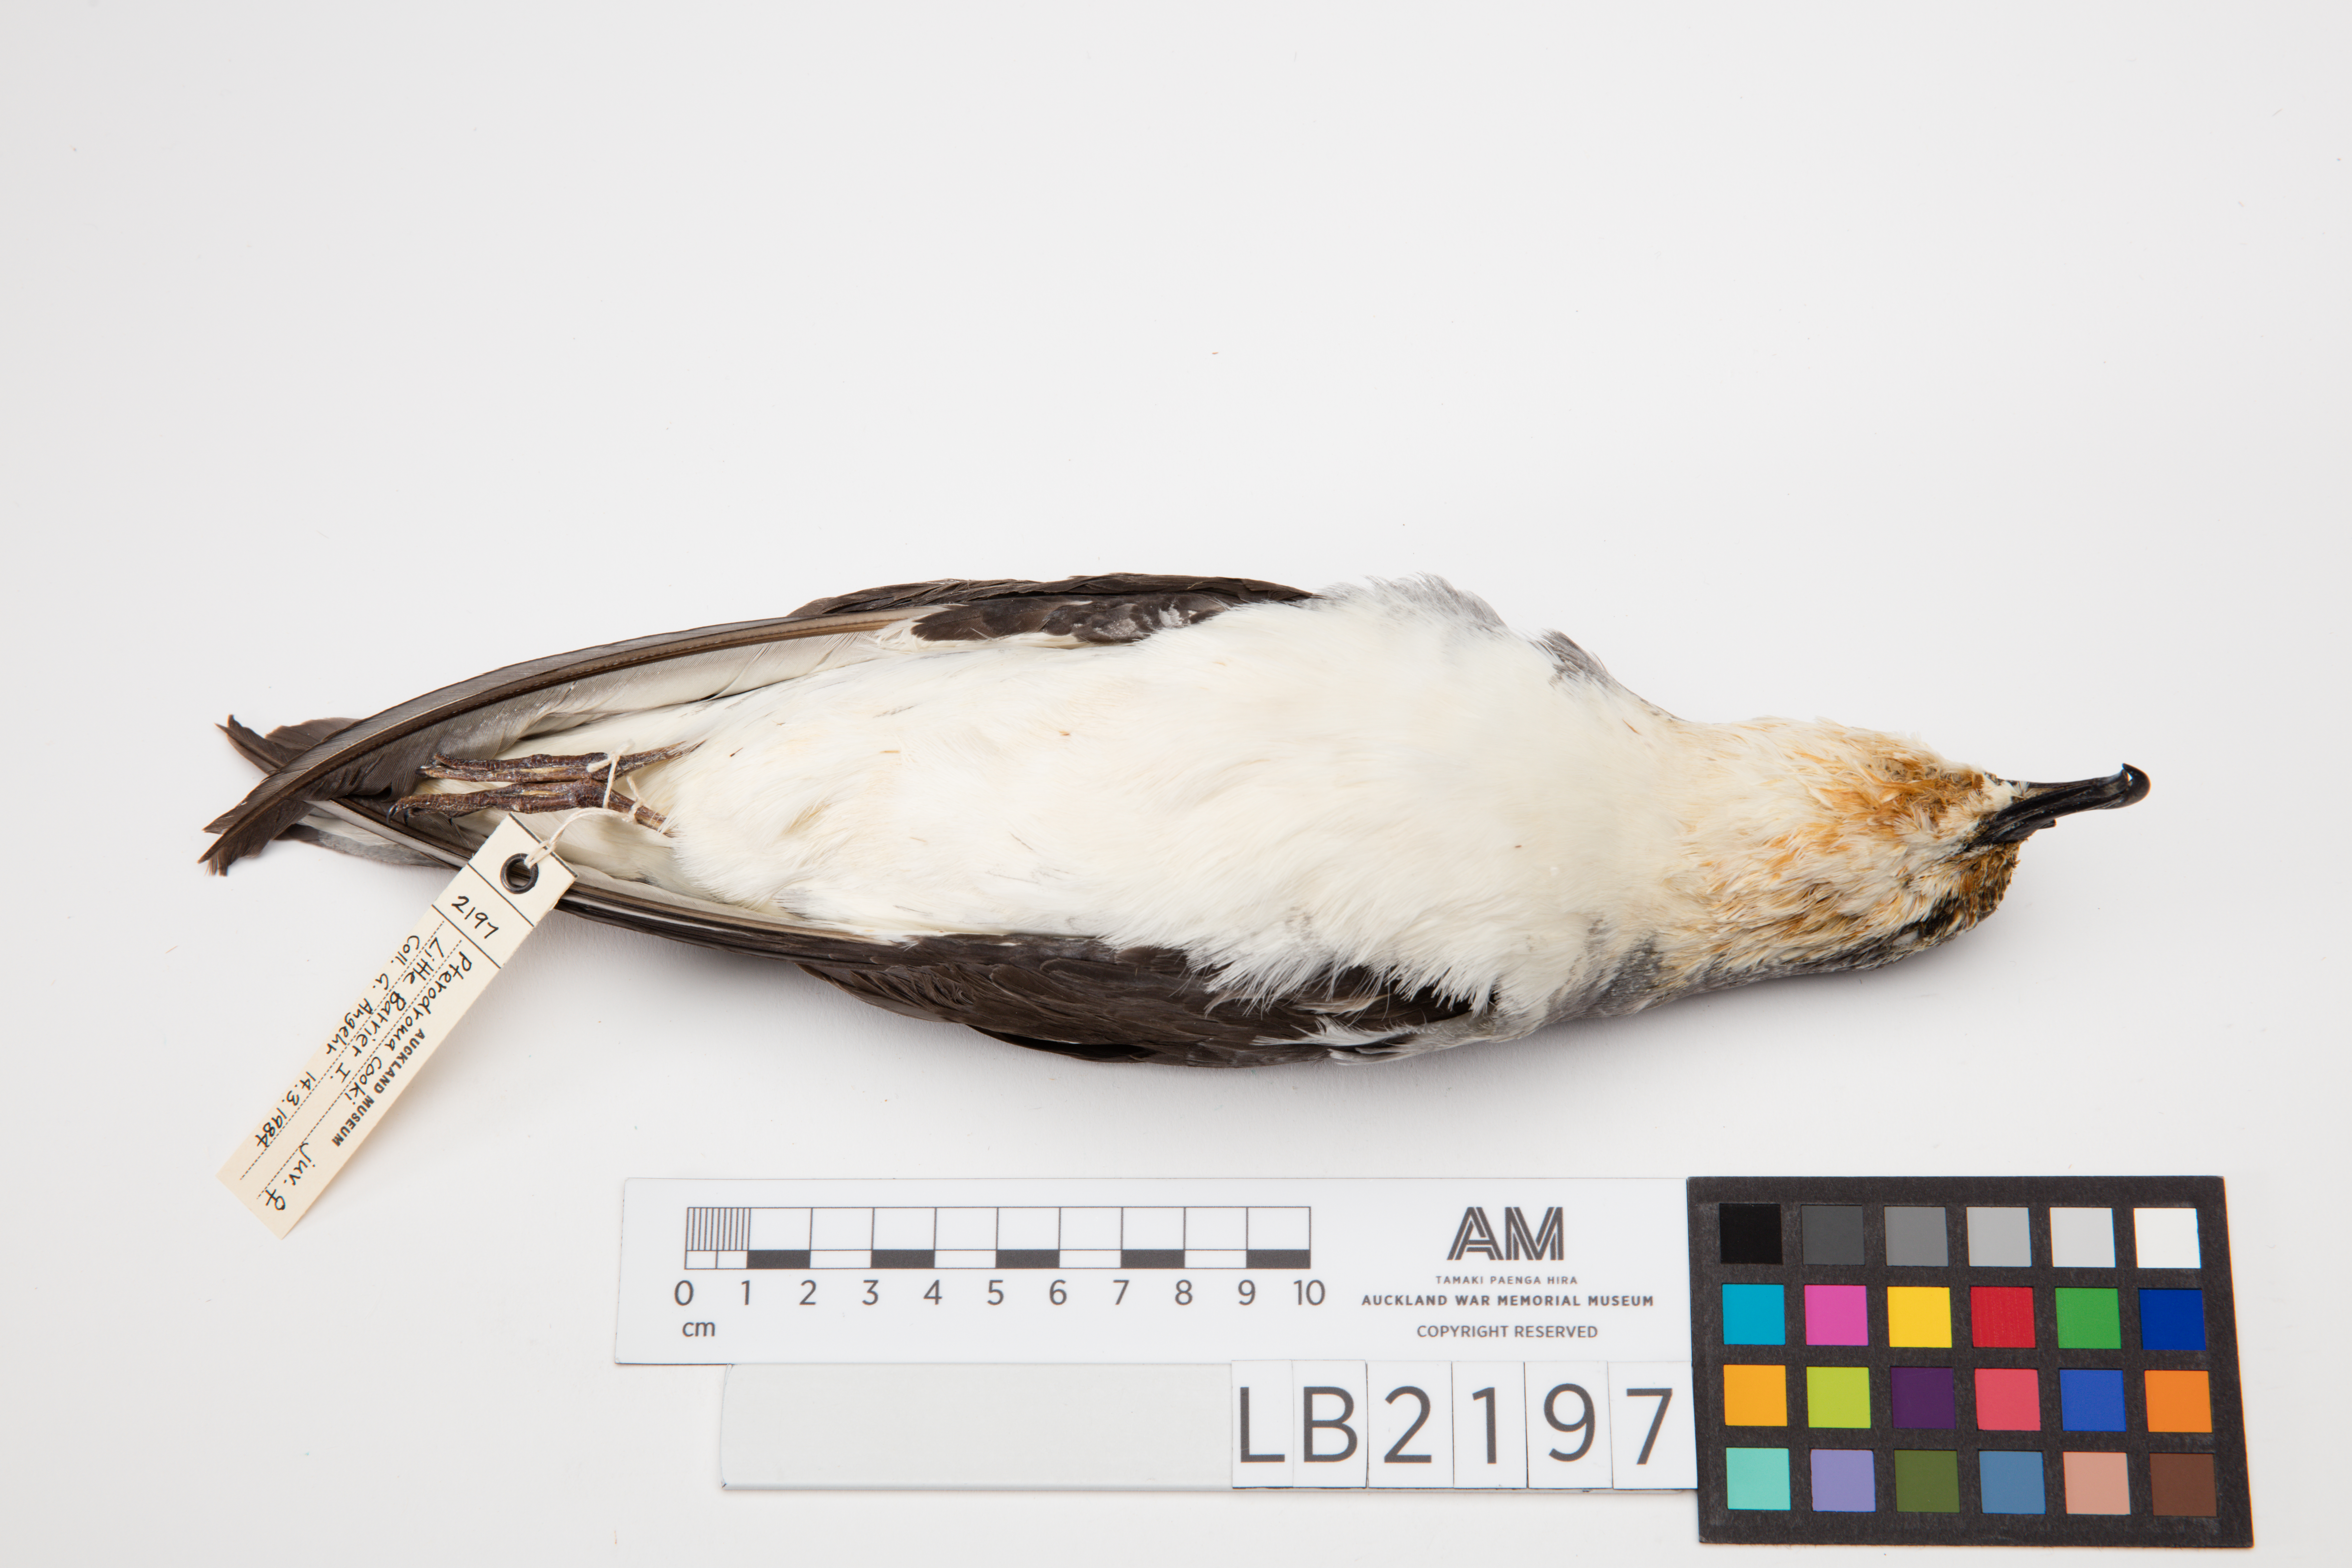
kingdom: Animalia
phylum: Chordata
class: Aves
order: Procellariiformes
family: Procellariidae
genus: Pterodroma
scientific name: Pterodroma cookii
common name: Cook's petrel
